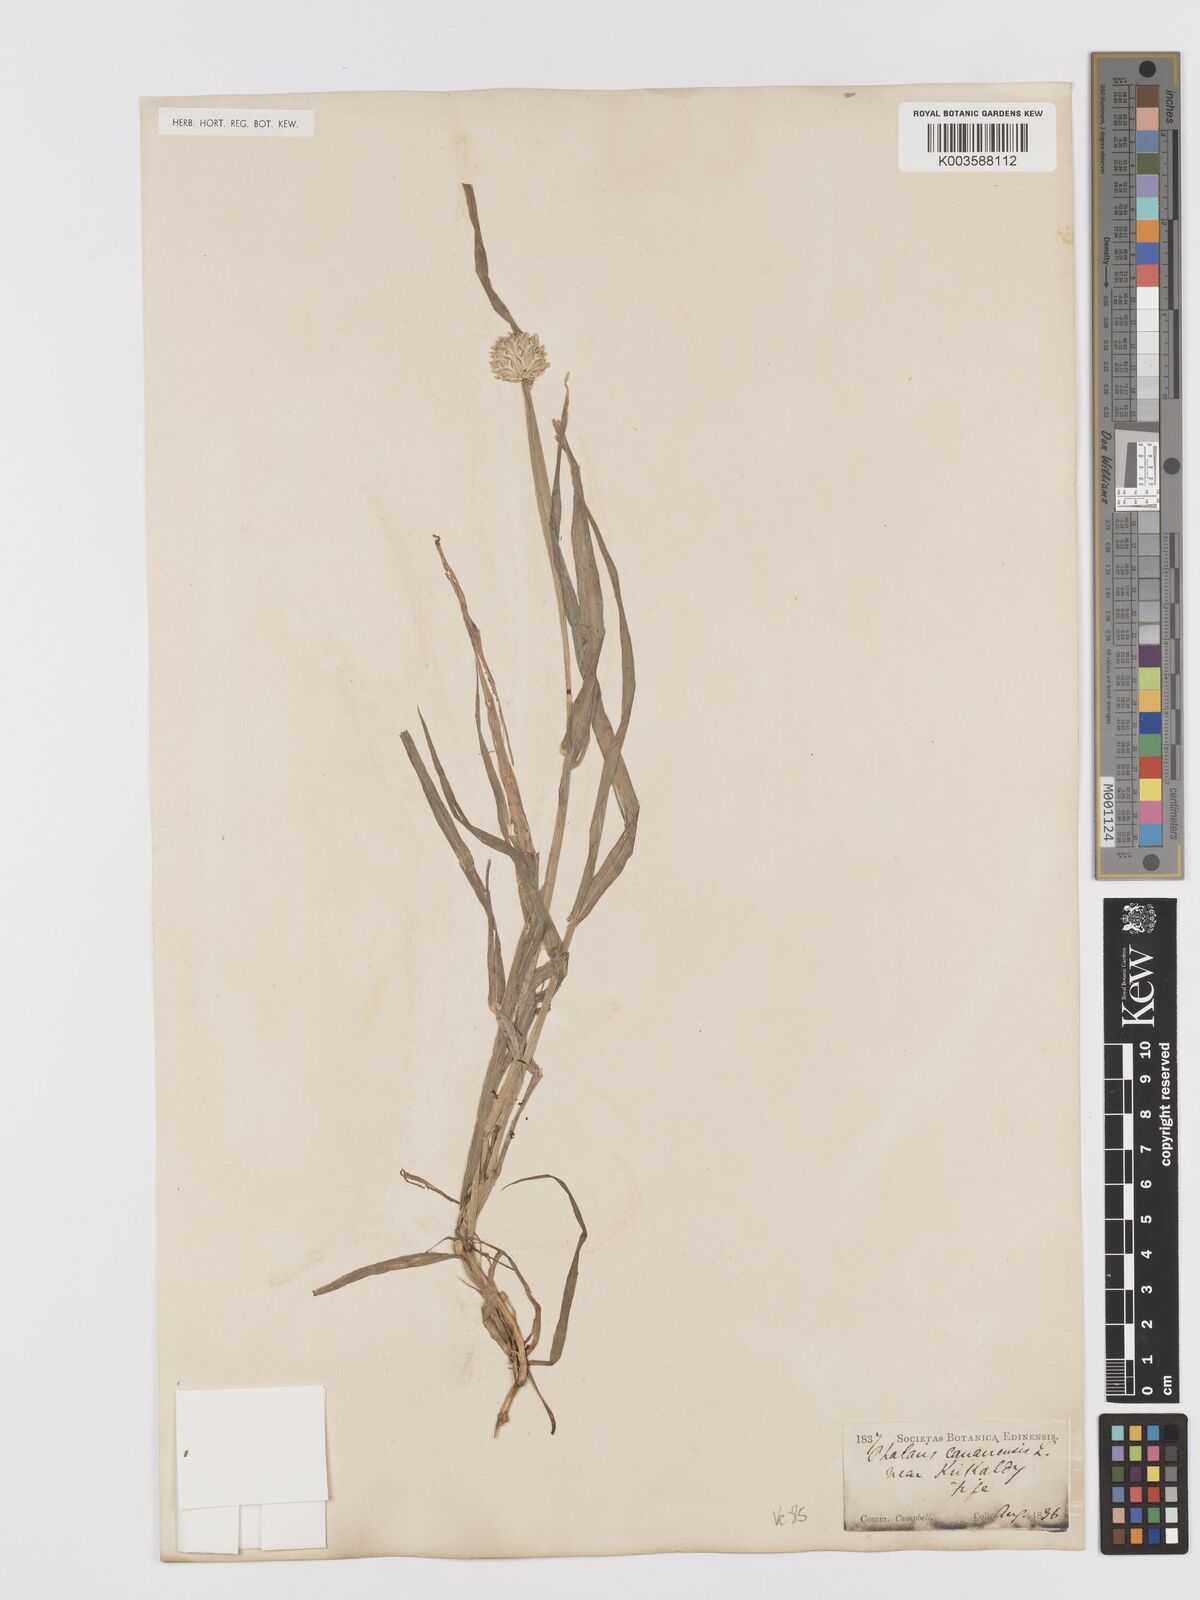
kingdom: Plantae
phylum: Tracheophyta
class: Liliopsida
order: Poales
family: Poaceae
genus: Phalaris
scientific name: Phalaris canariensis
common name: Annual canarygrass
